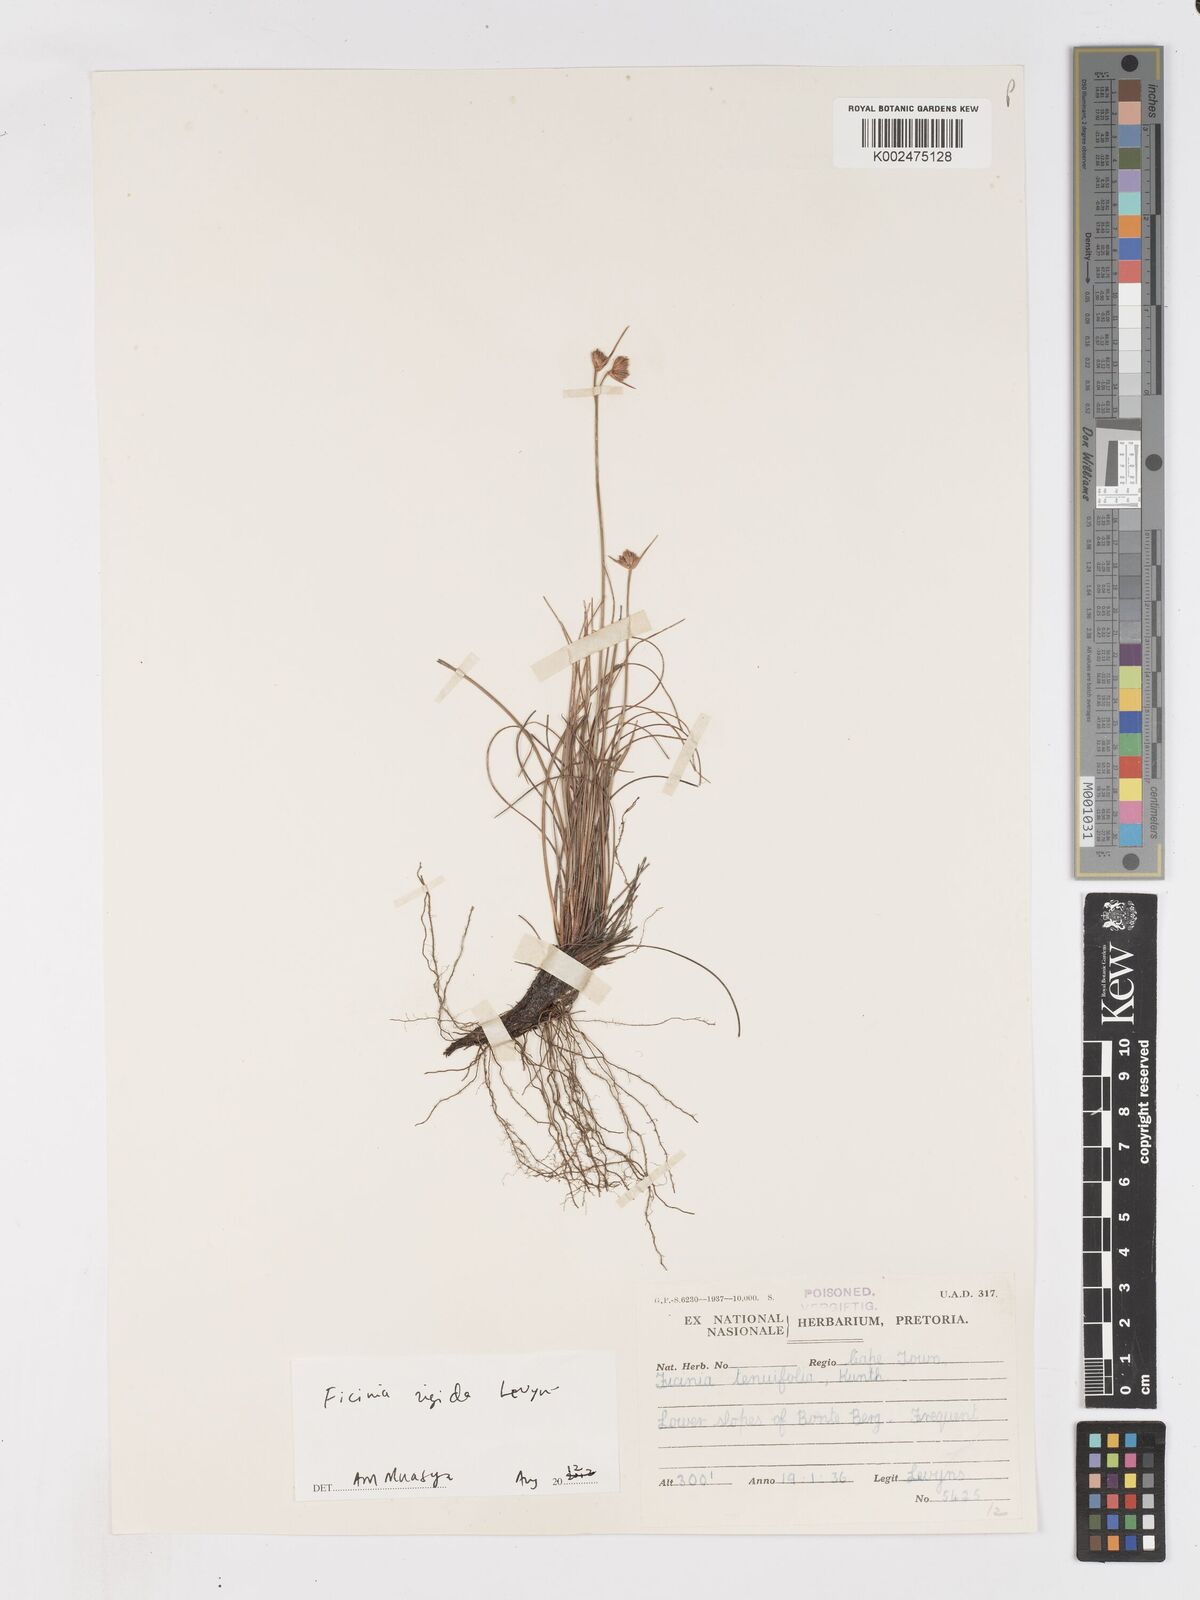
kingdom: Plantae
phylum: Tracheophyta
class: Liliopsida
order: Poales
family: Cyperaceae
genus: Ficinia
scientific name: Ficinia filiformis
